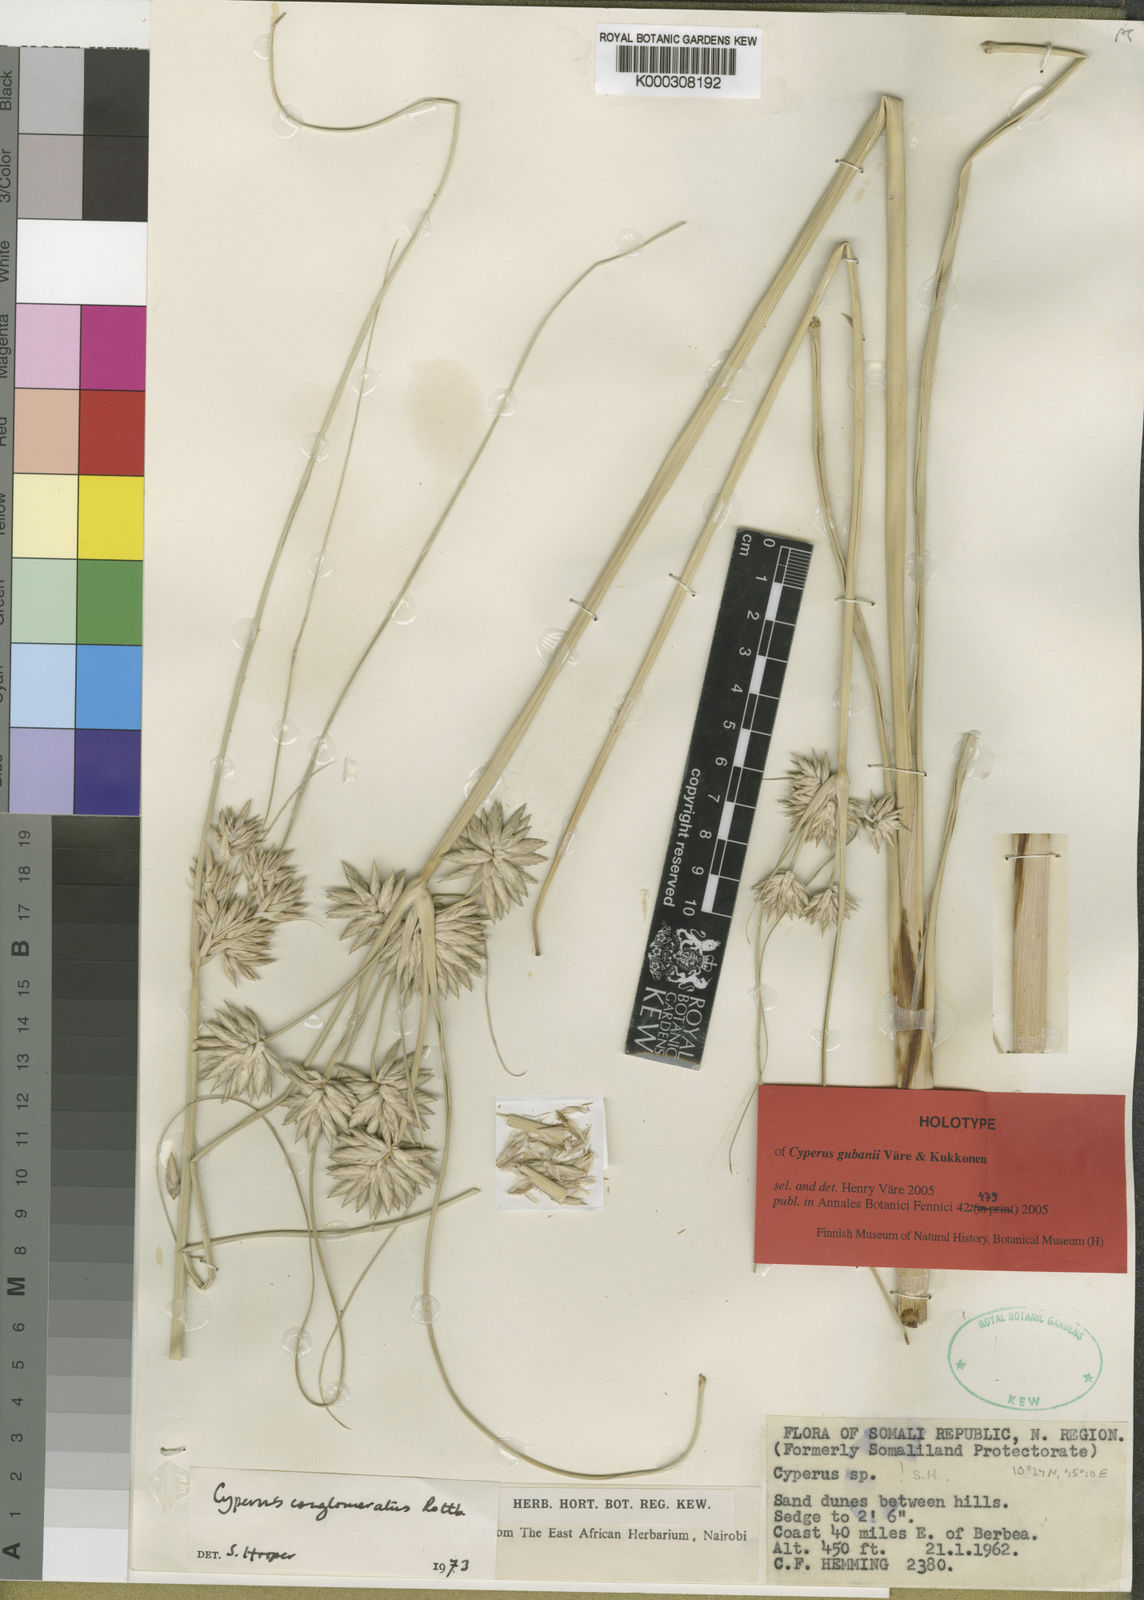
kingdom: Plantae
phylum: Tracheophyta
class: Liliopsida
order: Poales
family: Cyperaceae
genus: Cyperus
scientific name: Cyperus
